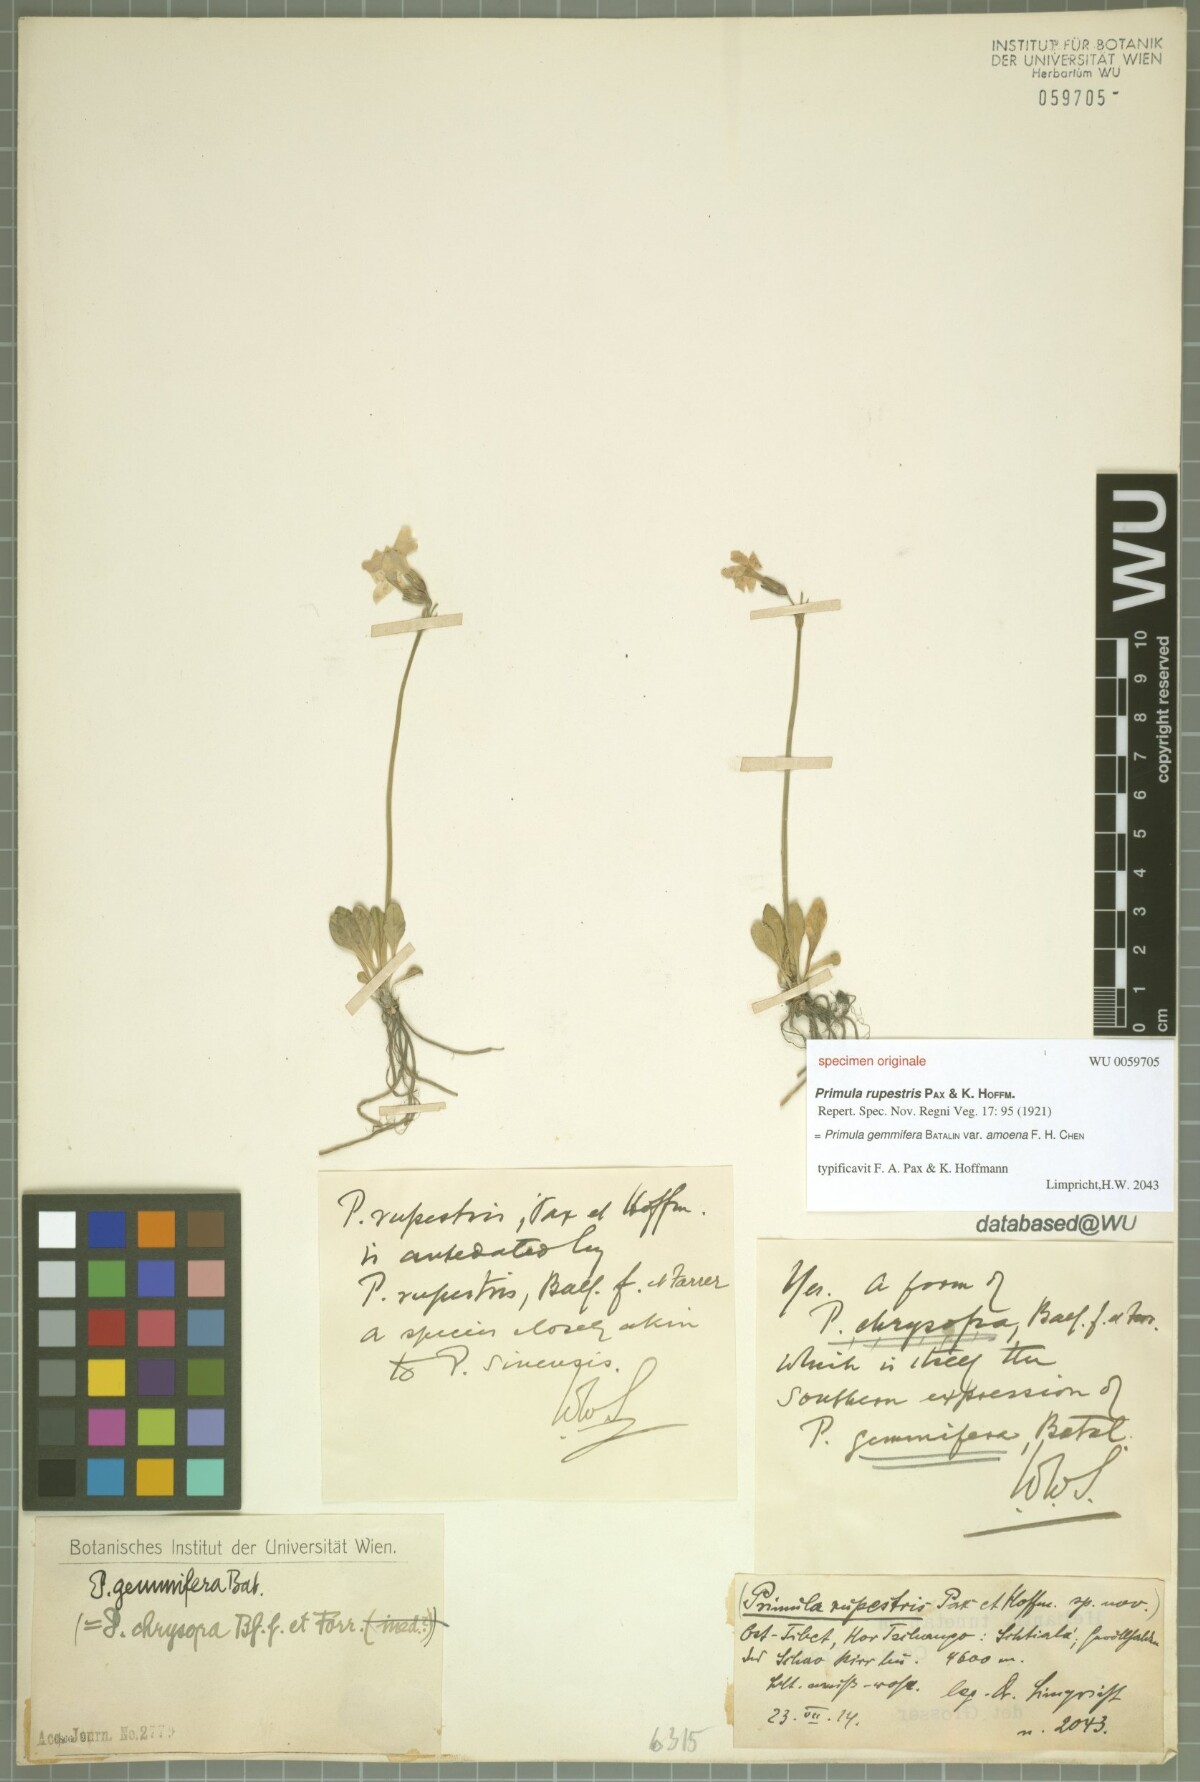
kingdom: Plantae
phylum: Tracheophyta
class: Magnoliopsida
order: Ericales
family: Primulaceae
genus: Primula
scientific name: Primula gemmifera
